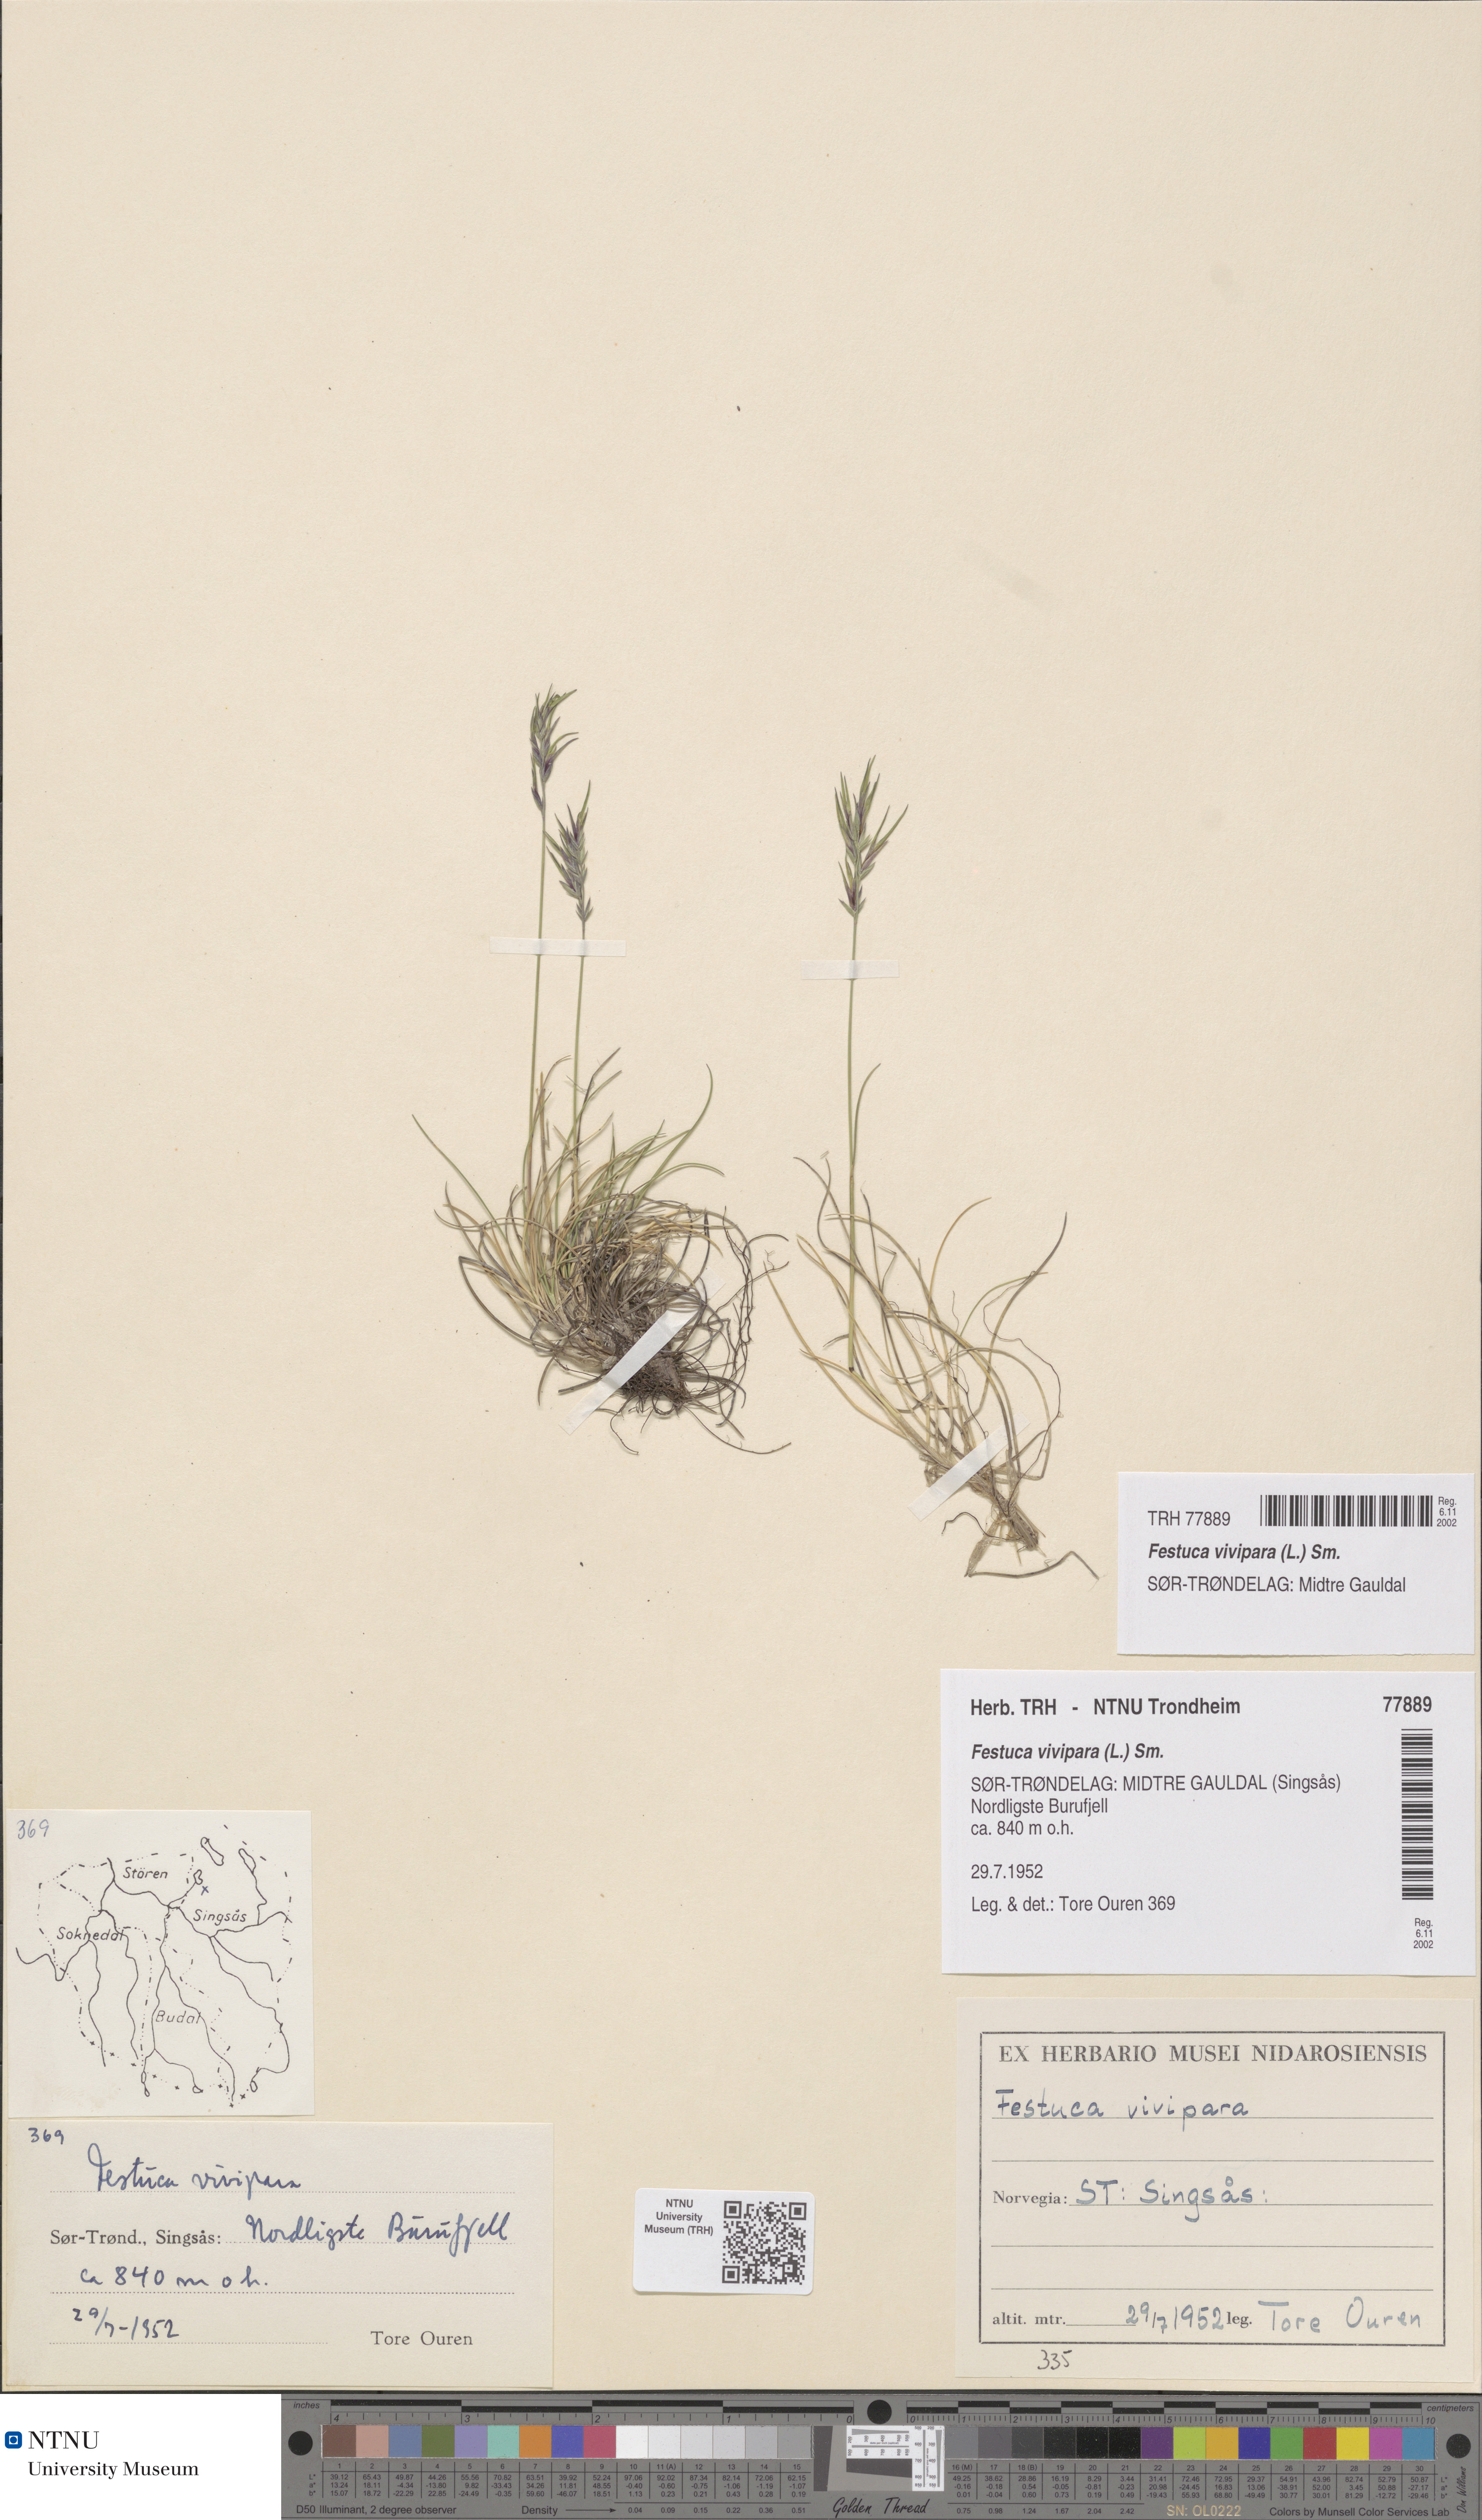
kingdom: Plantae
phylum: Tracheophyta
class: Liliopsida
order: Poales
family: Poaceae
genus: Festuca
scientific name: Festuca vivipara
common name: Viviparous sheep's-fescue
